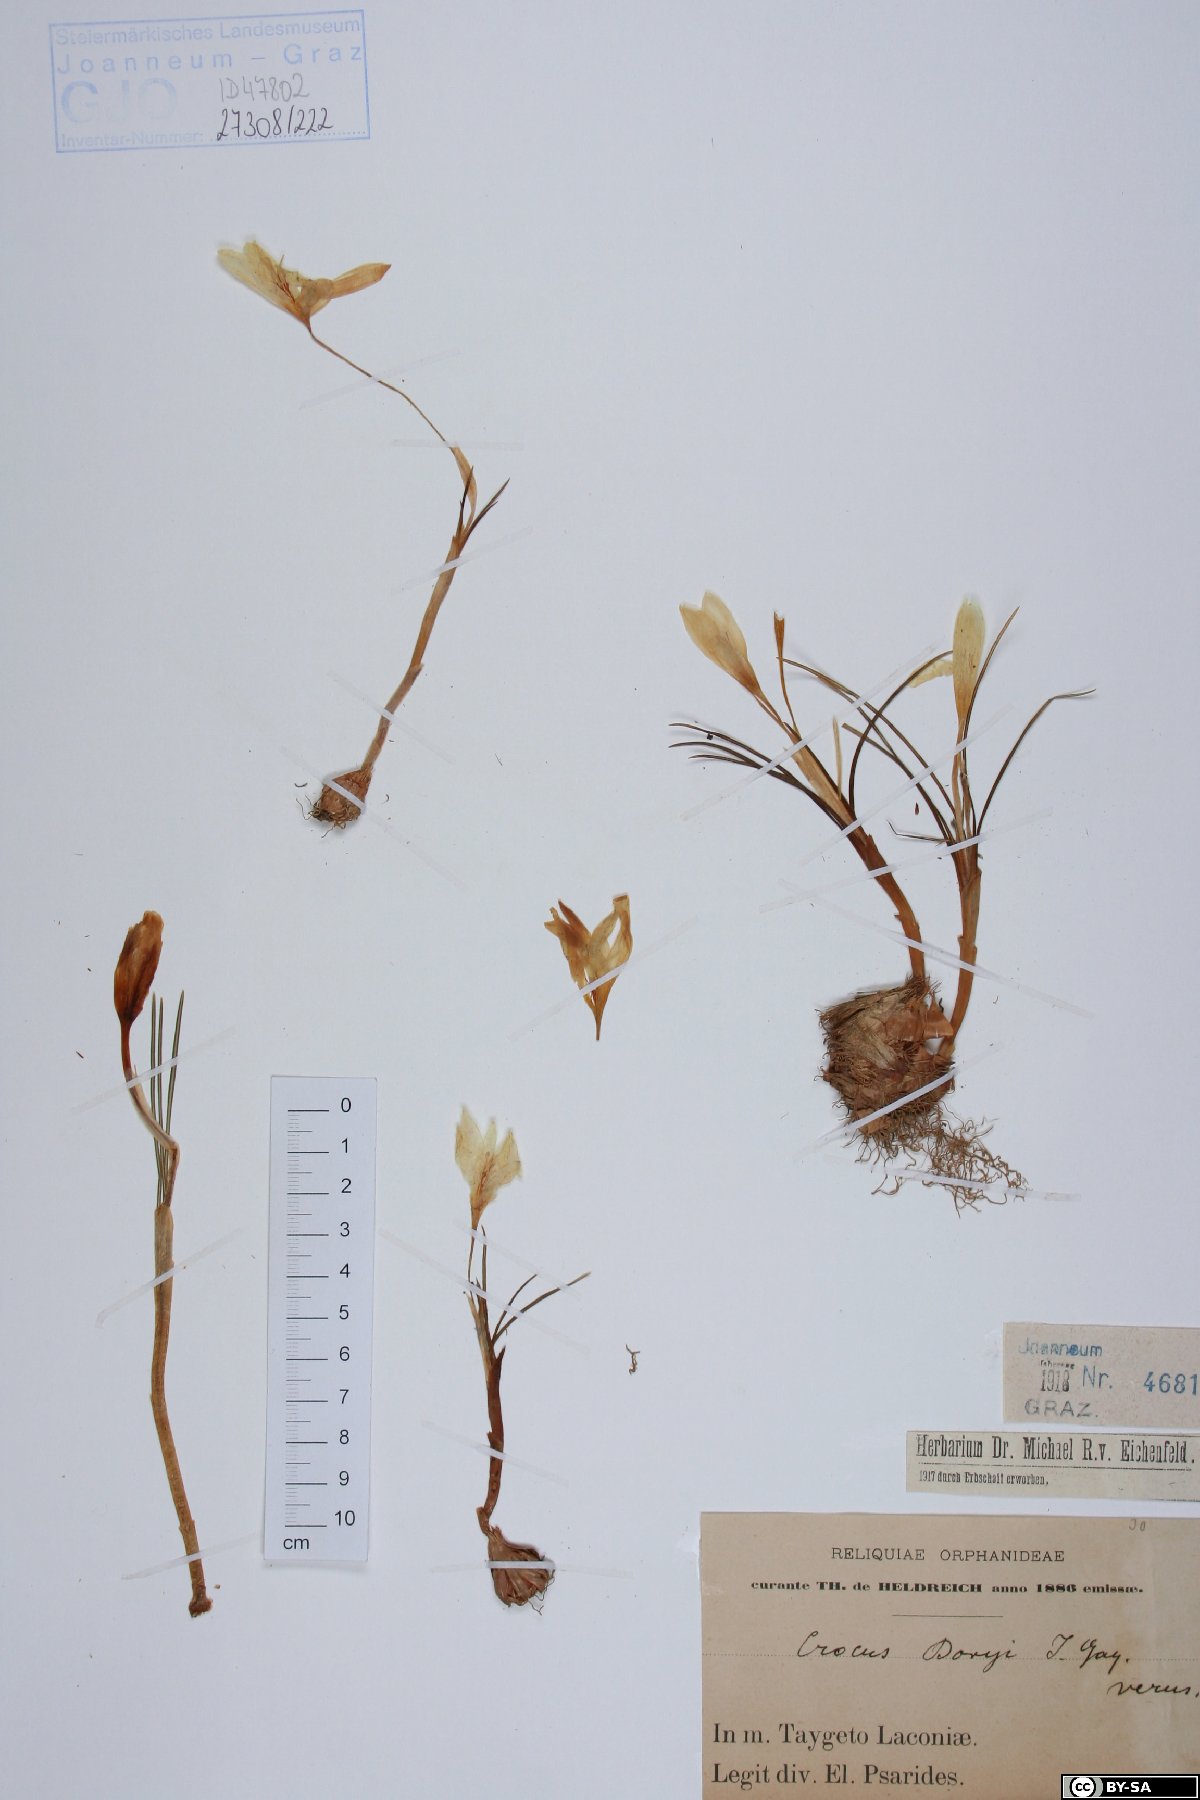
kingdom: Plantae
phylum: Tracheophyta
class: Liliopsida
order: Asparagales
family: Iridaceae
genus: Crocus
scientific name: Crocus boryi
